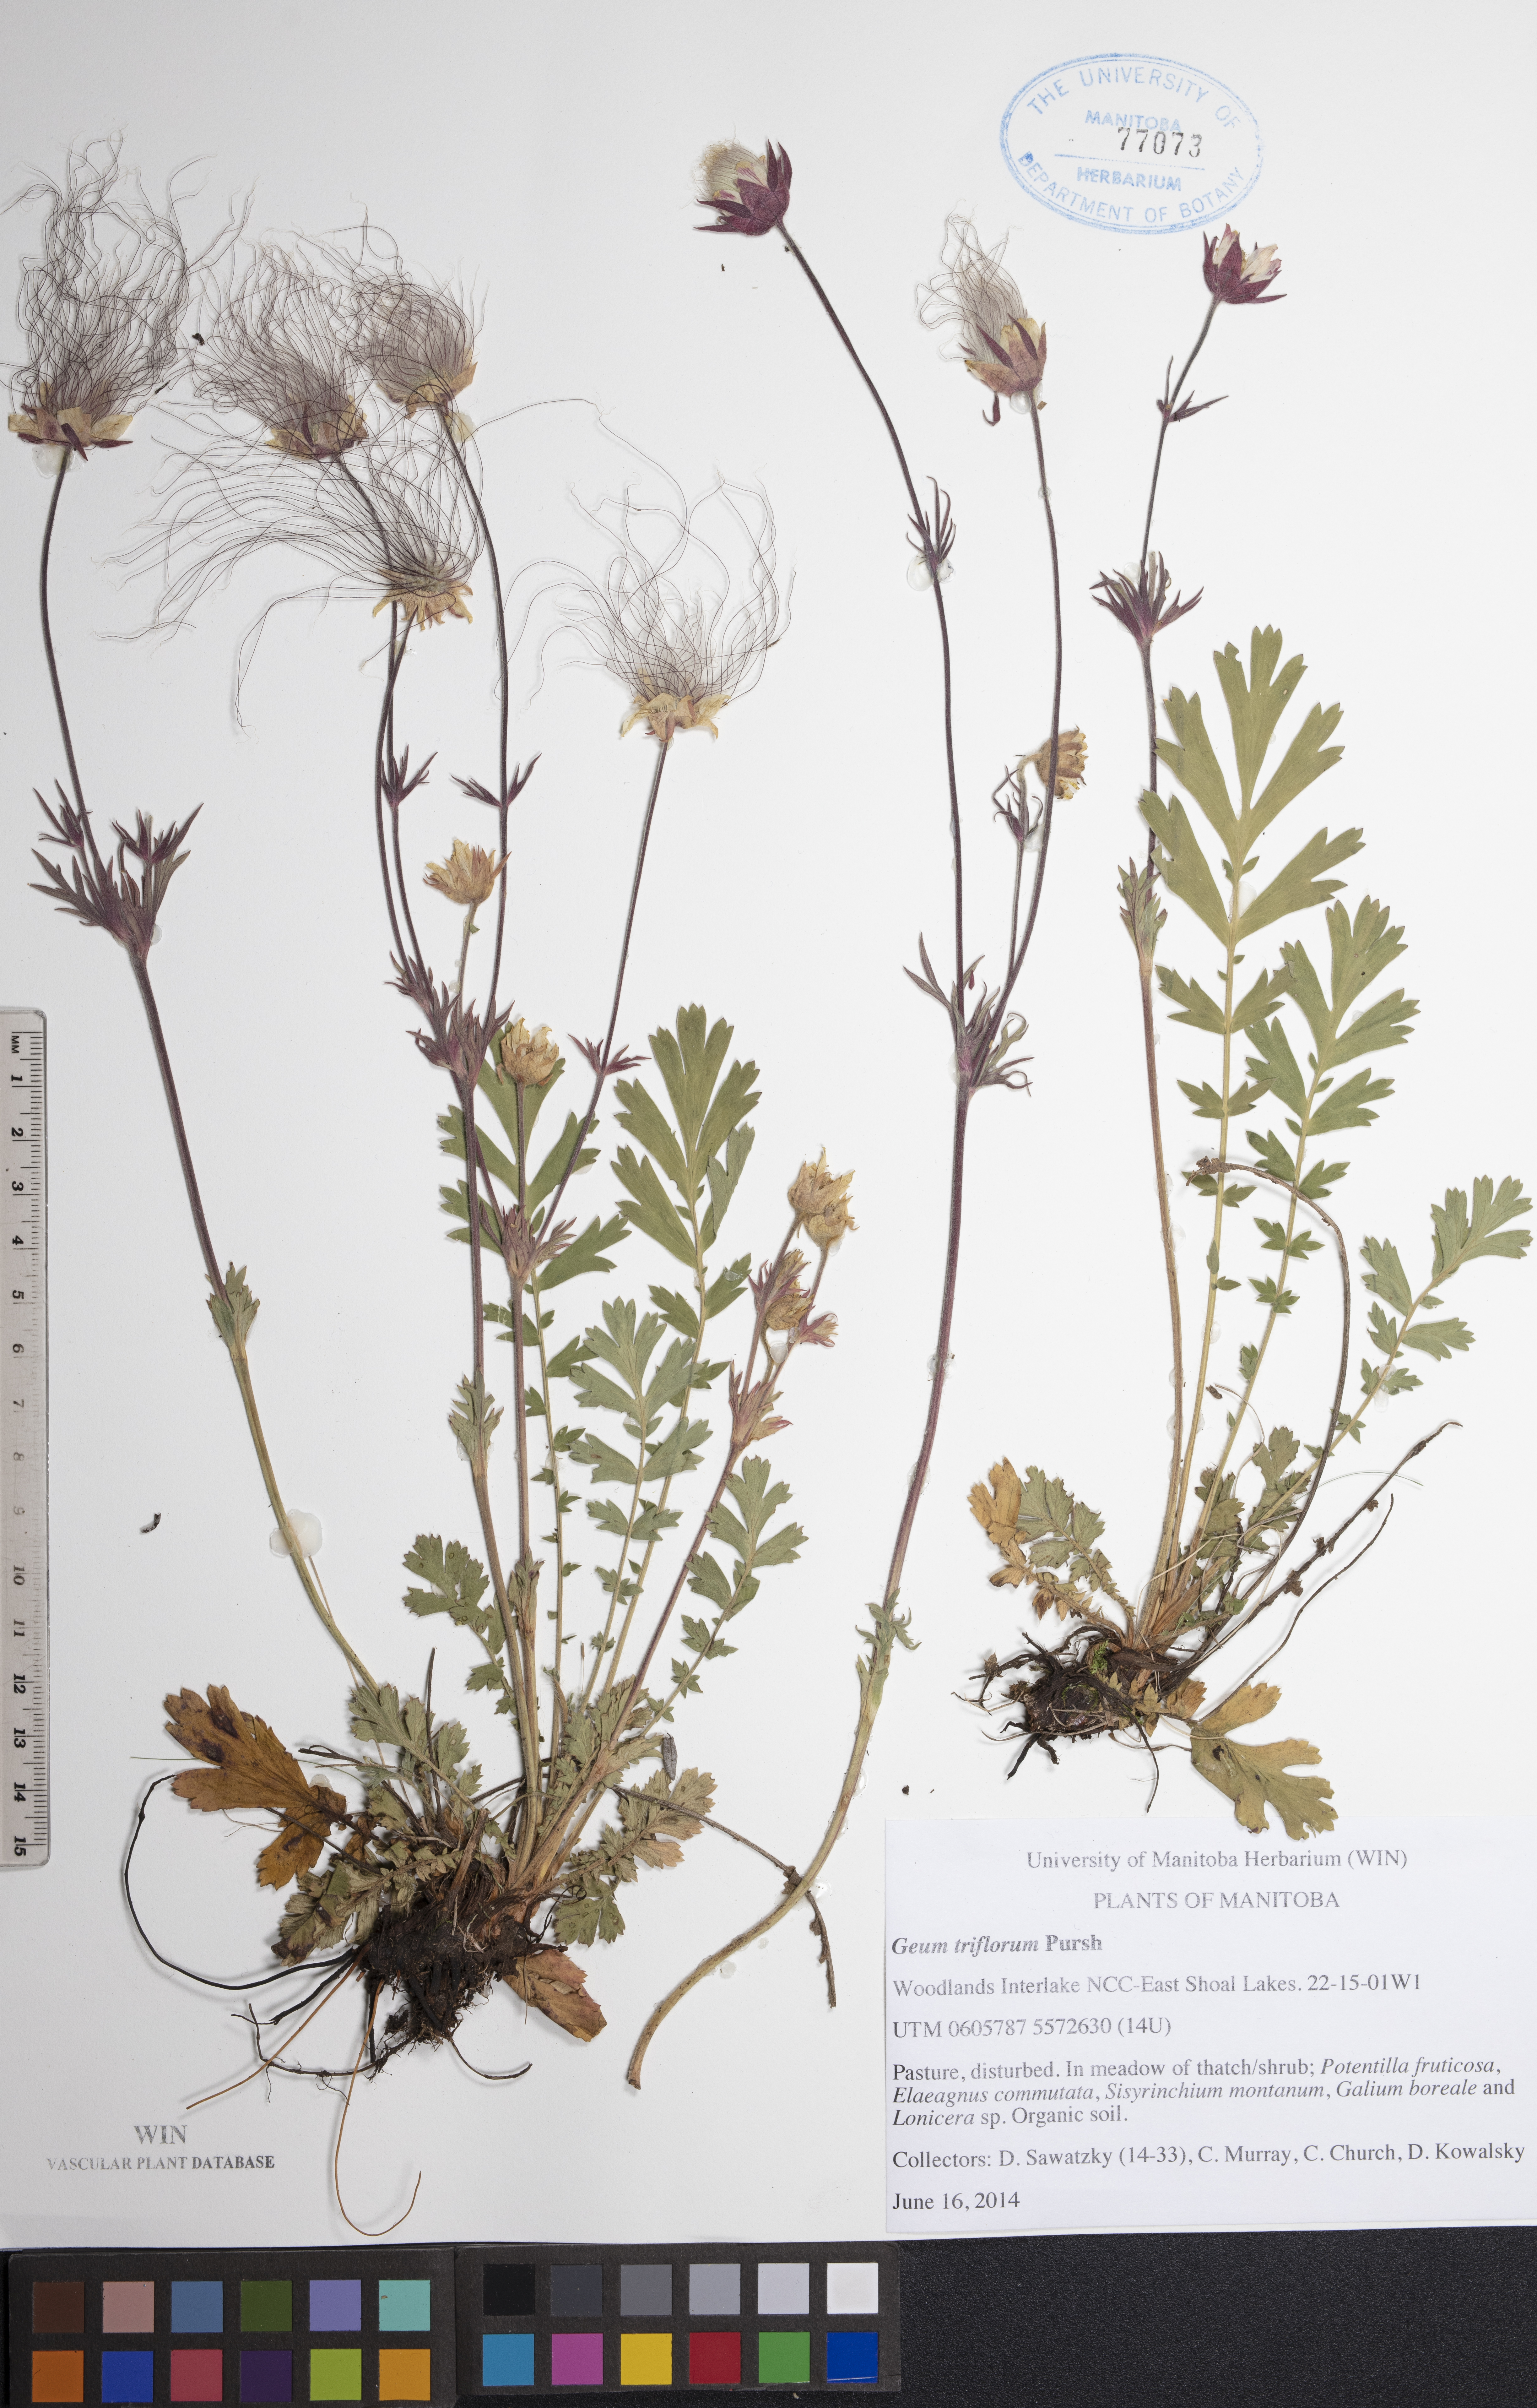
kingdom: Plantae
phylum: Tracheophyta
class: Magnoliopsida
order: Rosales
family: Rosaceae
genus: Geum
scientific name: Geum triflorum
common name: Old man's whiskers
